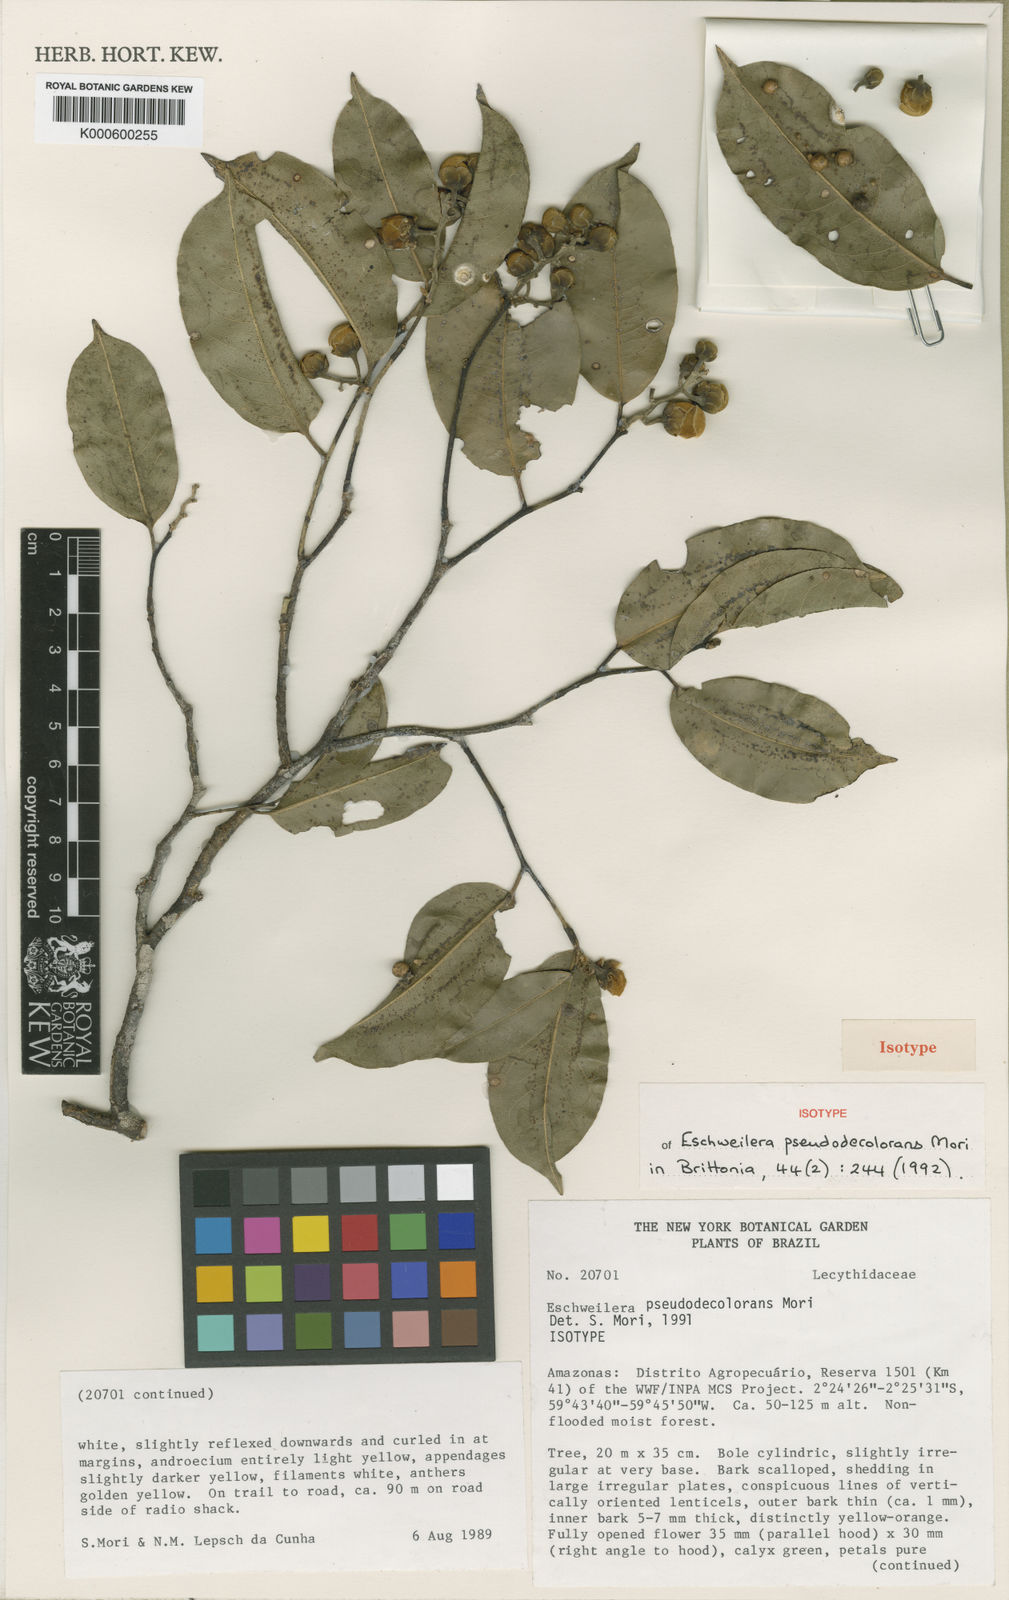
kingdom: Plantae
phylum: Tracheophyta
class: Magnoliopsida
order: Ericales
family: Lecythidaceae
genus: Eschweilera
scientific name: Eschweilera pseudodecolorans
